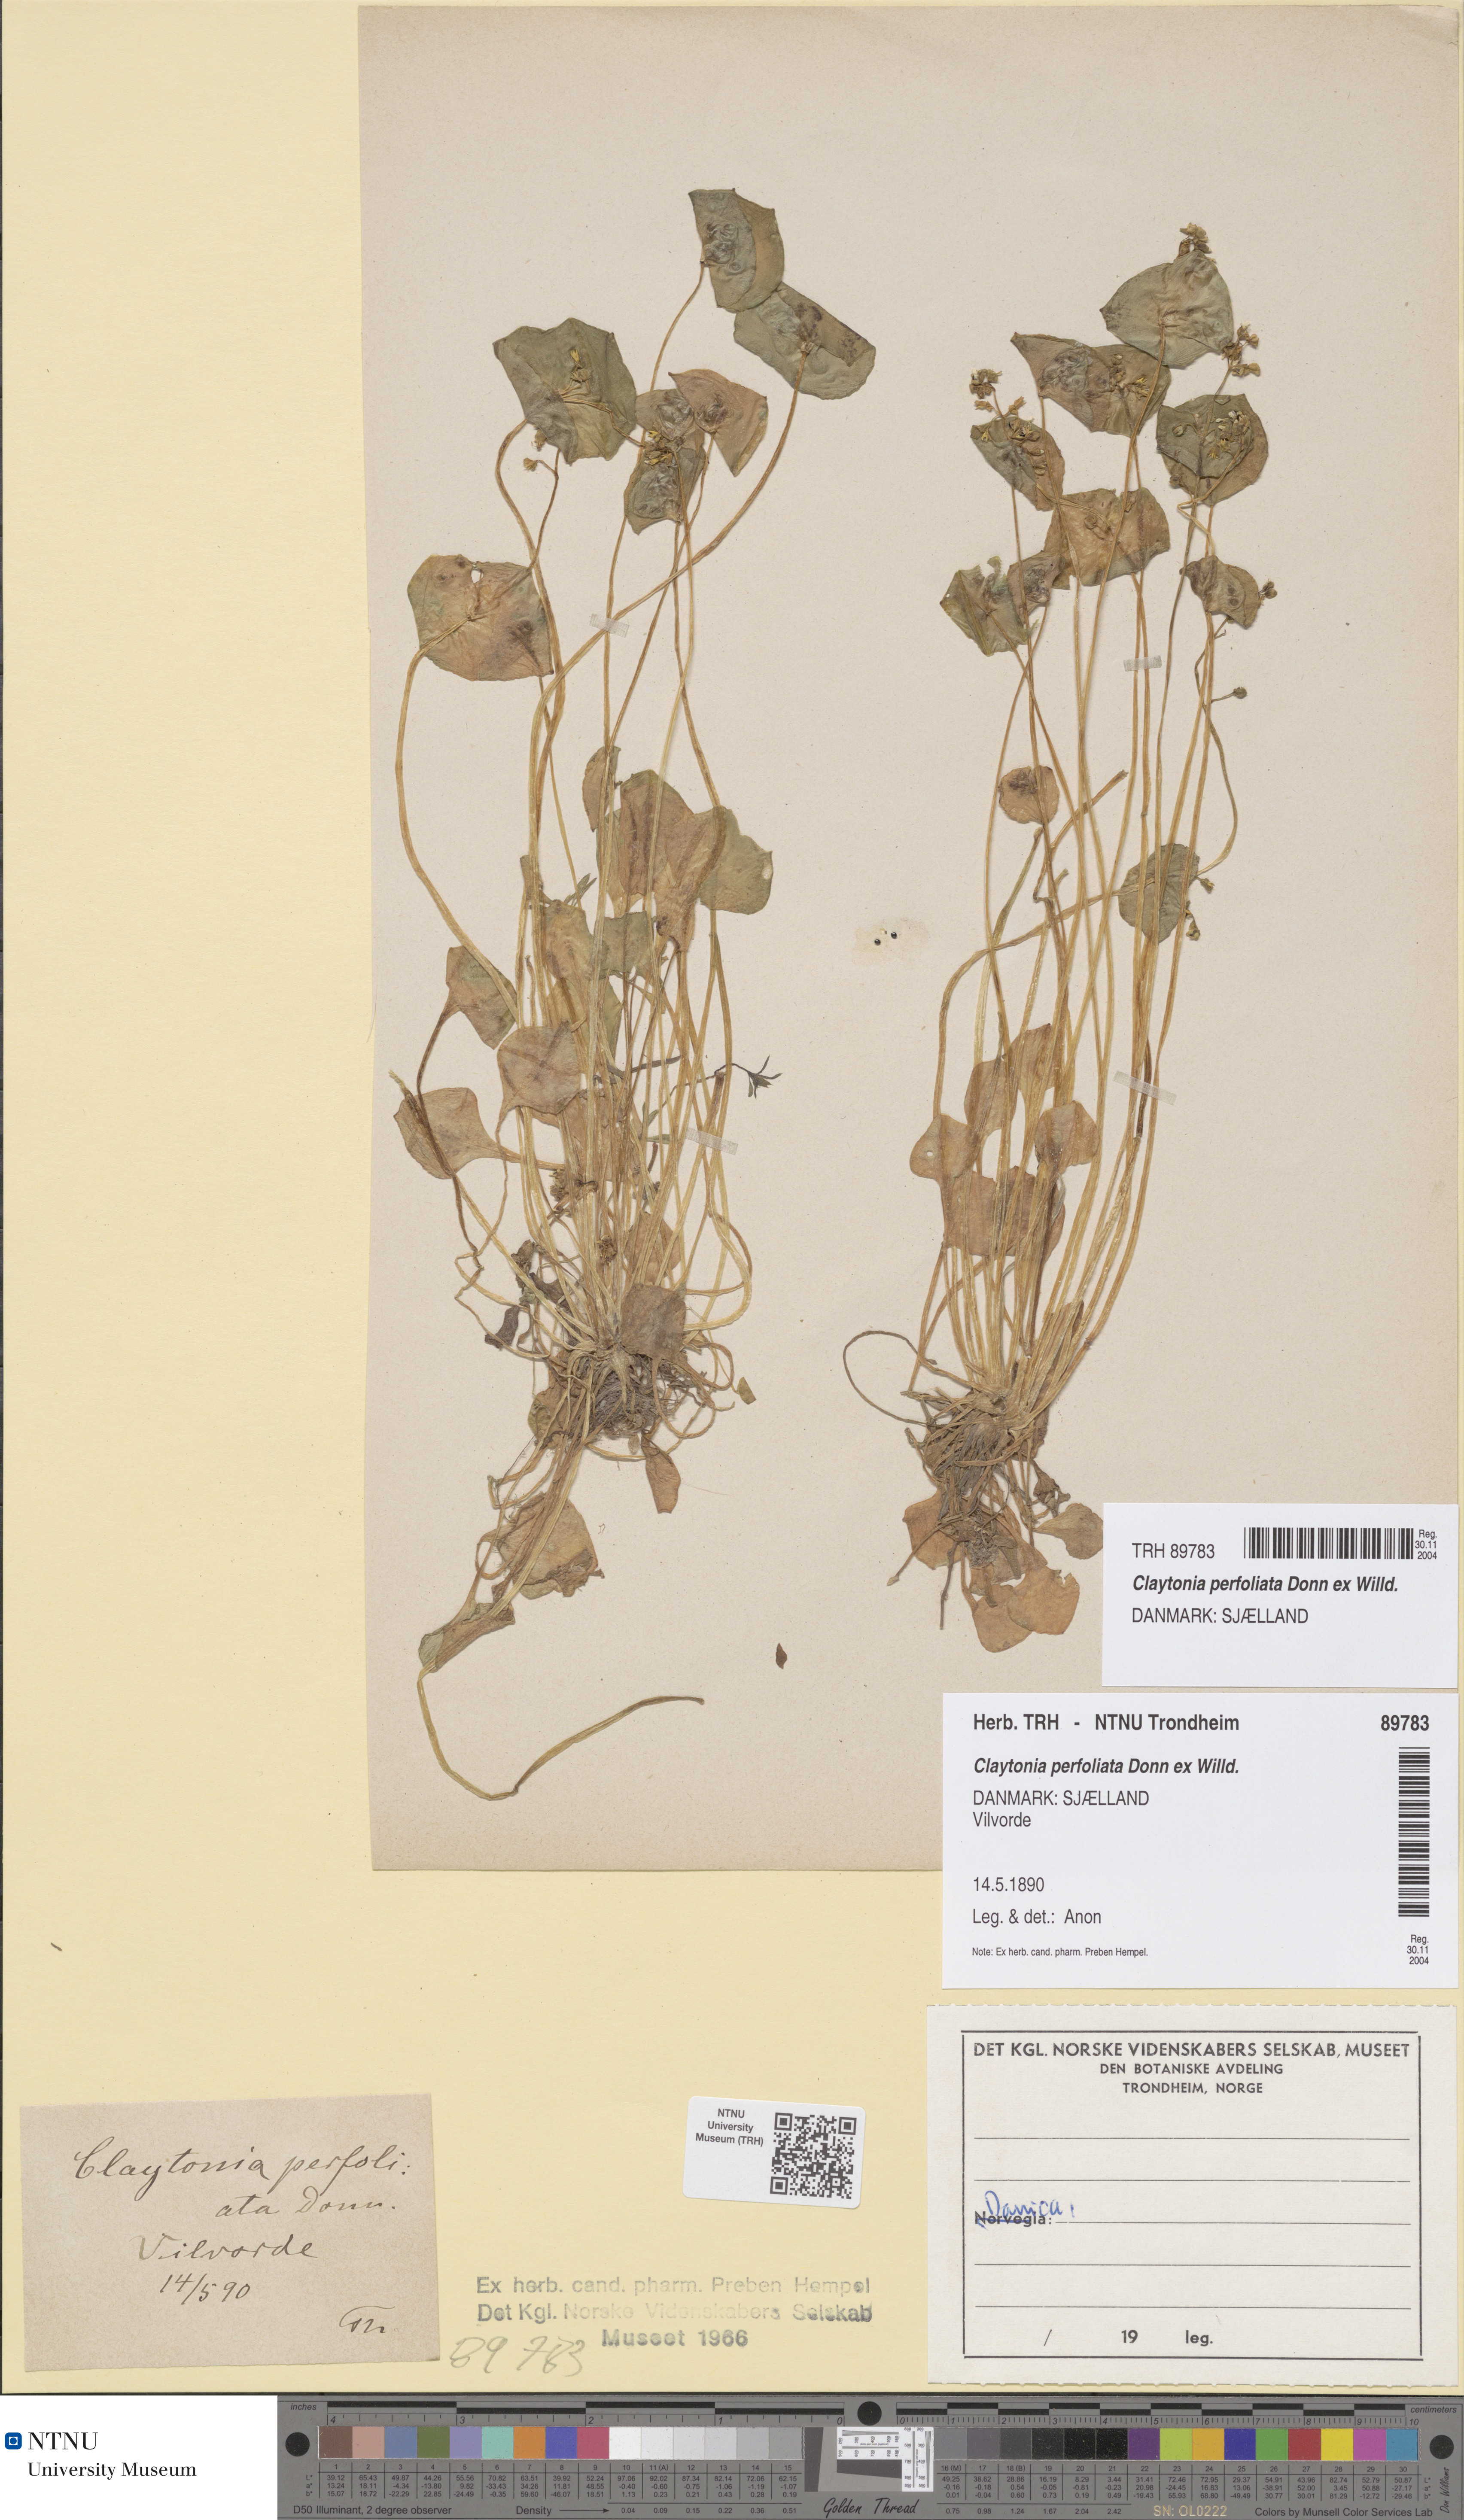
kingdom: Plantae
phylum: Tracheophyta
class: Magnoliopsida
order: Caryophyllales
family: Montiaceae
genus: Claytonia
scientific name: Claytonia perfoliata
